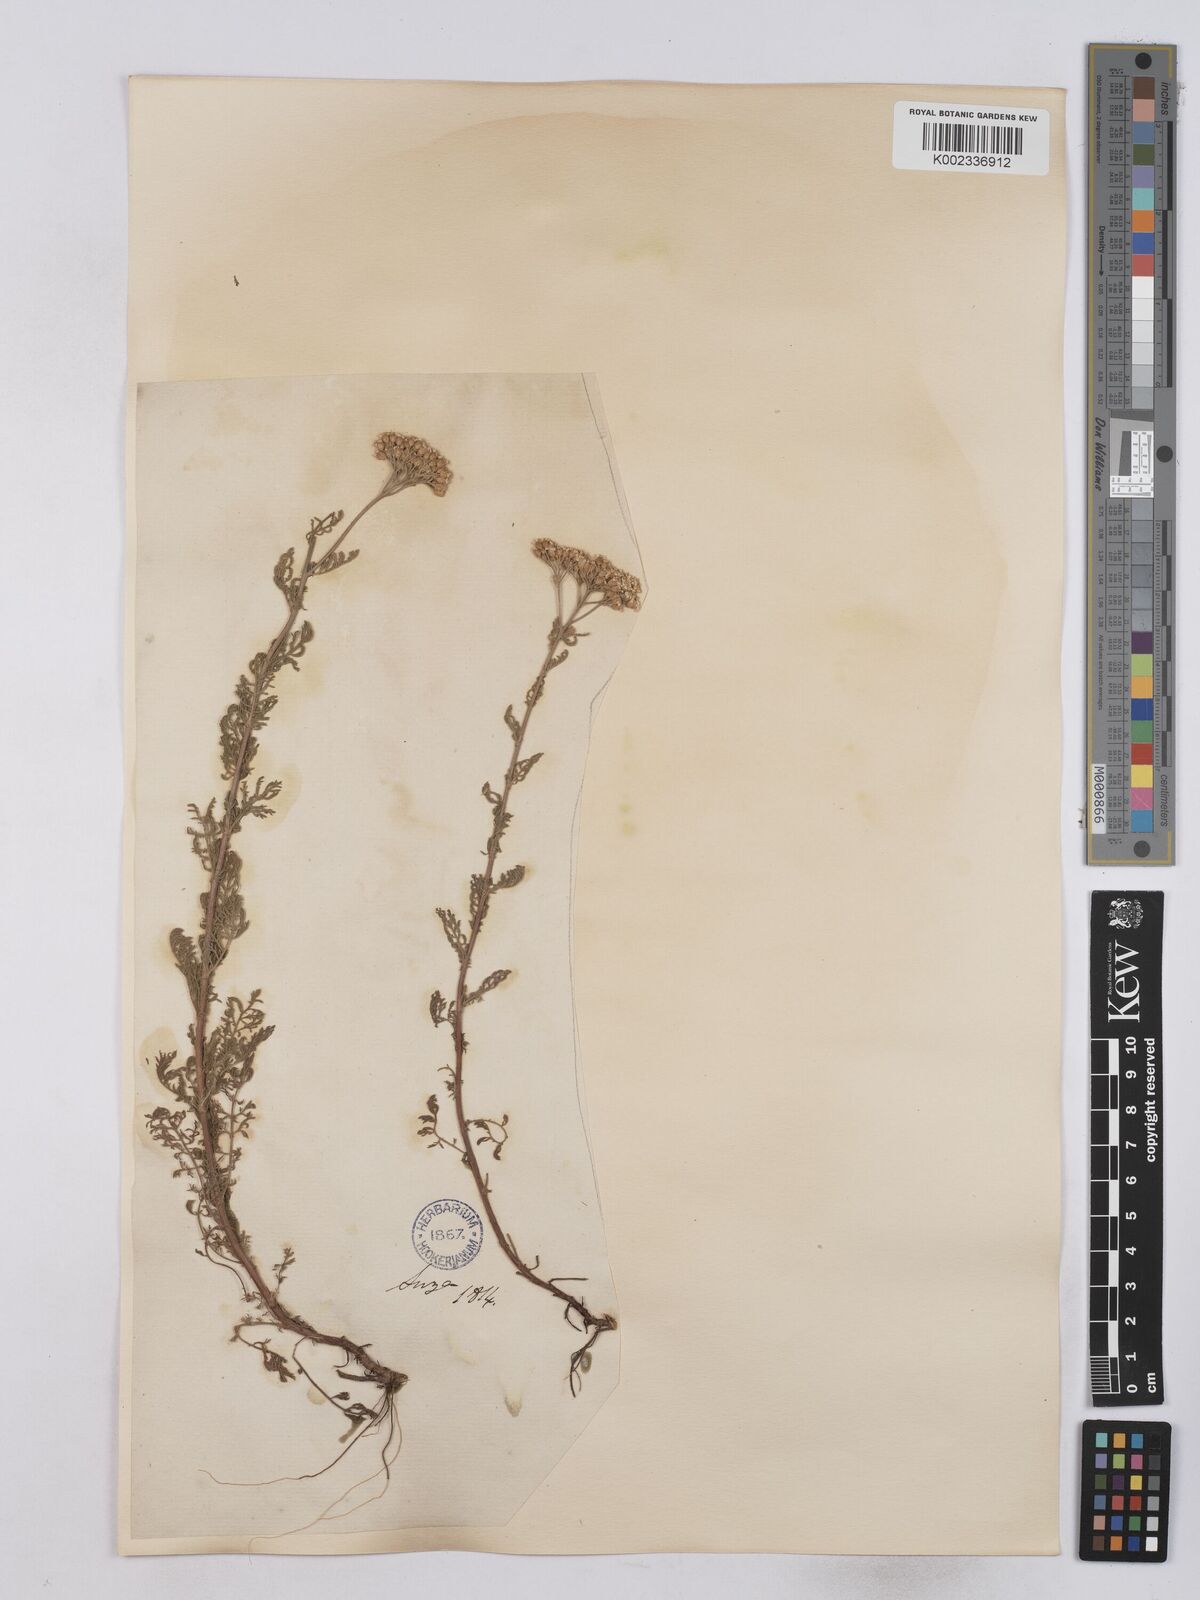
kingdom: Plantae
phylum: Tracheophyta
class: Magnoliopsida
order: Asterales
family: Asteraceae
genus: Achillea
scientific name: Achillea odorata
